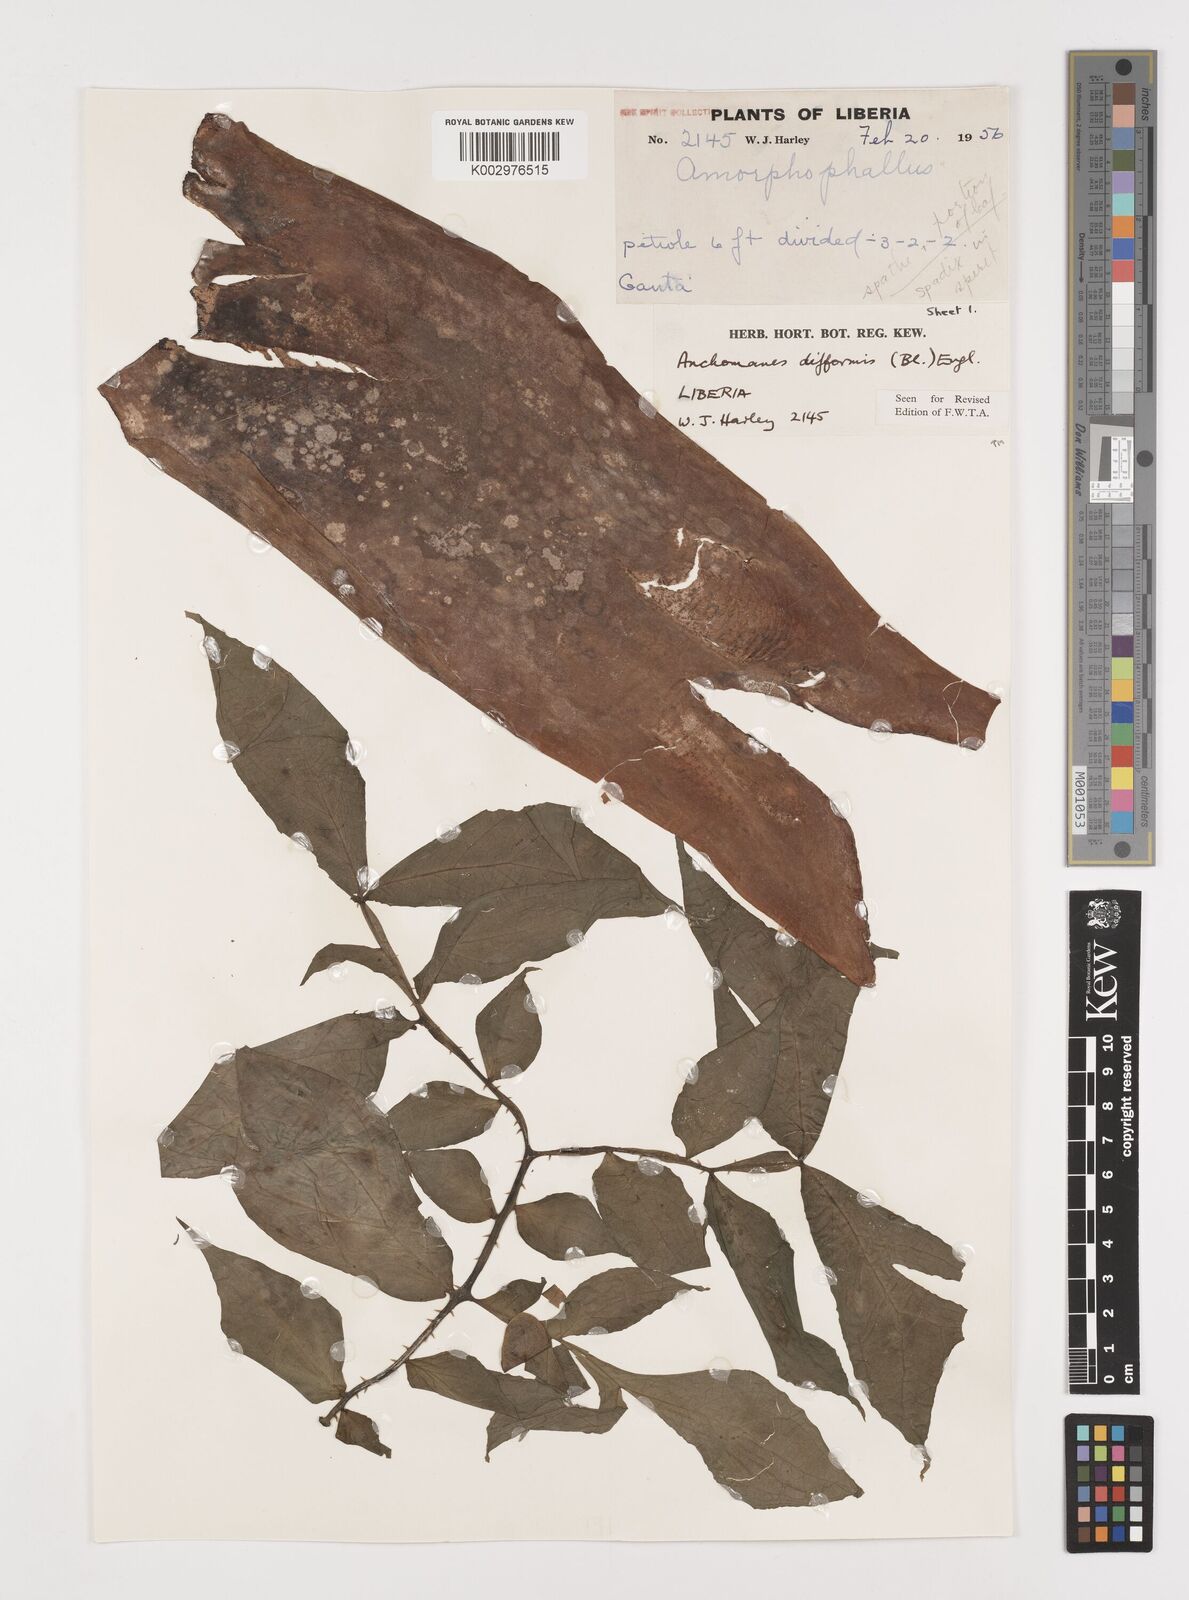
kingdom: Plantae
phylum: Tracheophyta
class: Liliopsida
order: Alismatales
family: Araceae
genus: Anchomanes
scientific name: Anchomanes difformis
